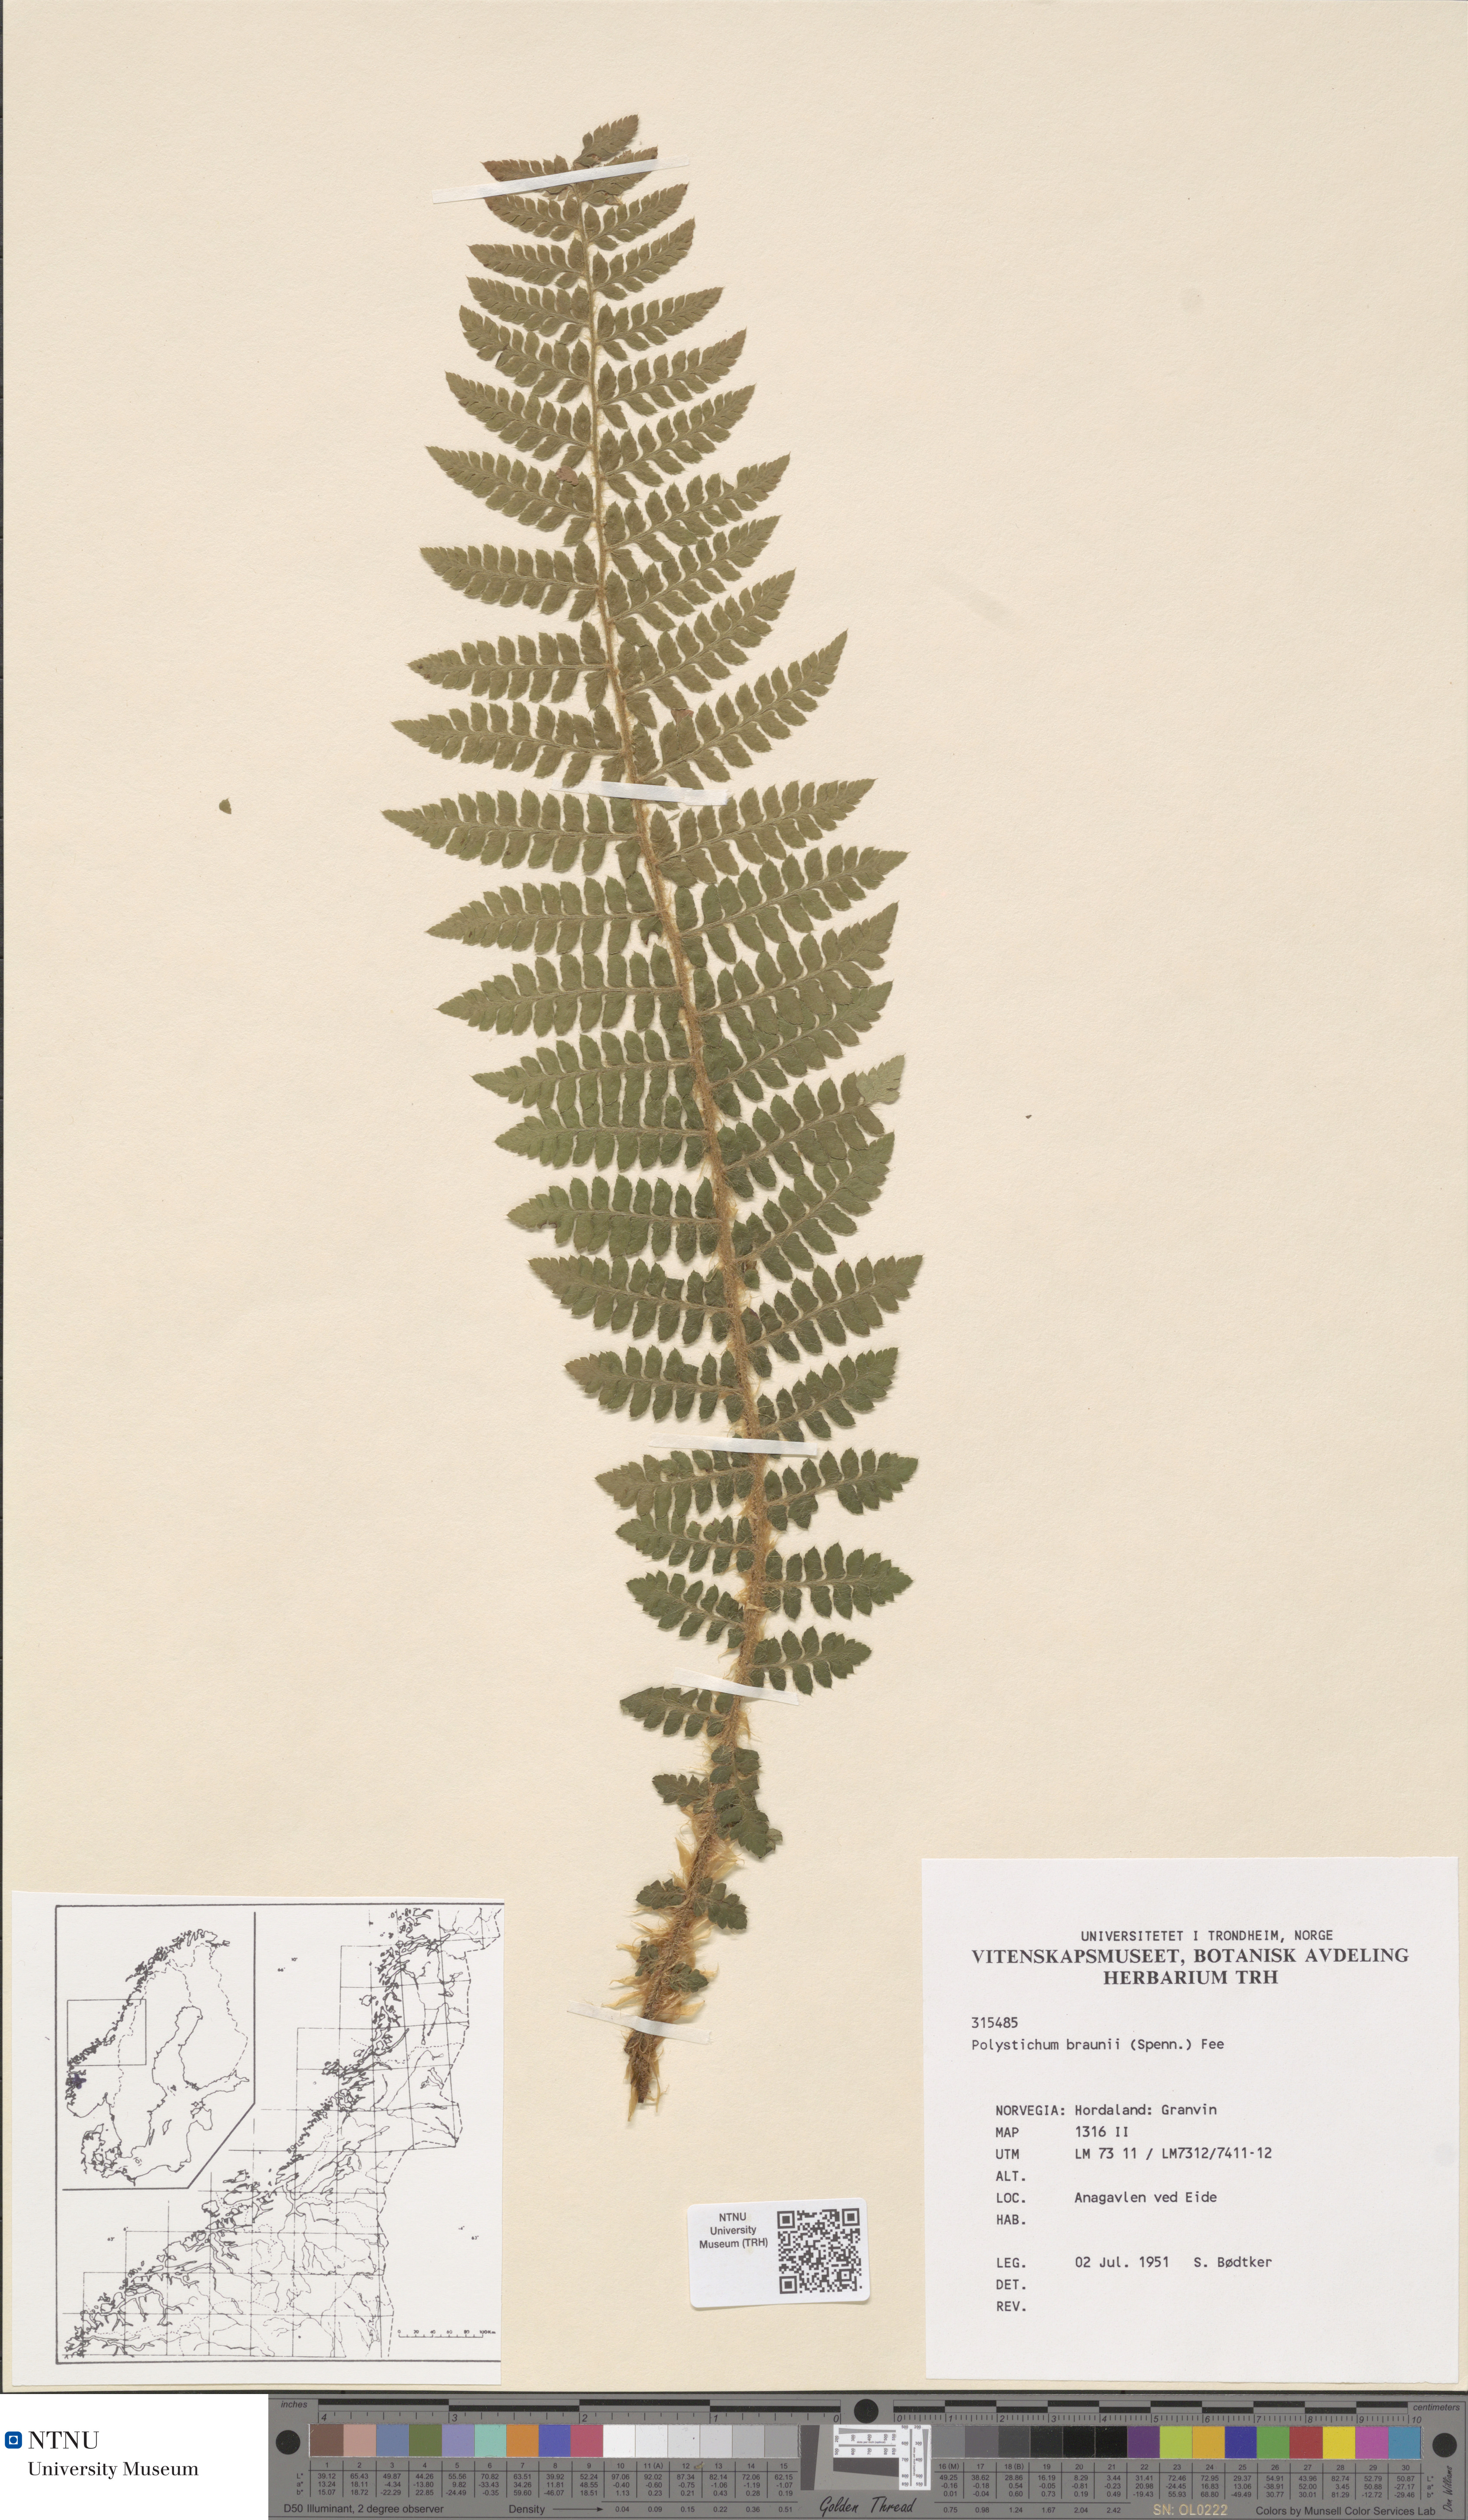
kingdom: Plantae
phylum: Tracheophyta
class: Polypodiopsida
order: Polypodiales
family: Dryopteridaceae
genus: Polystichum
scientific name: Polystichum braunii
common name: Braun's holly fern
